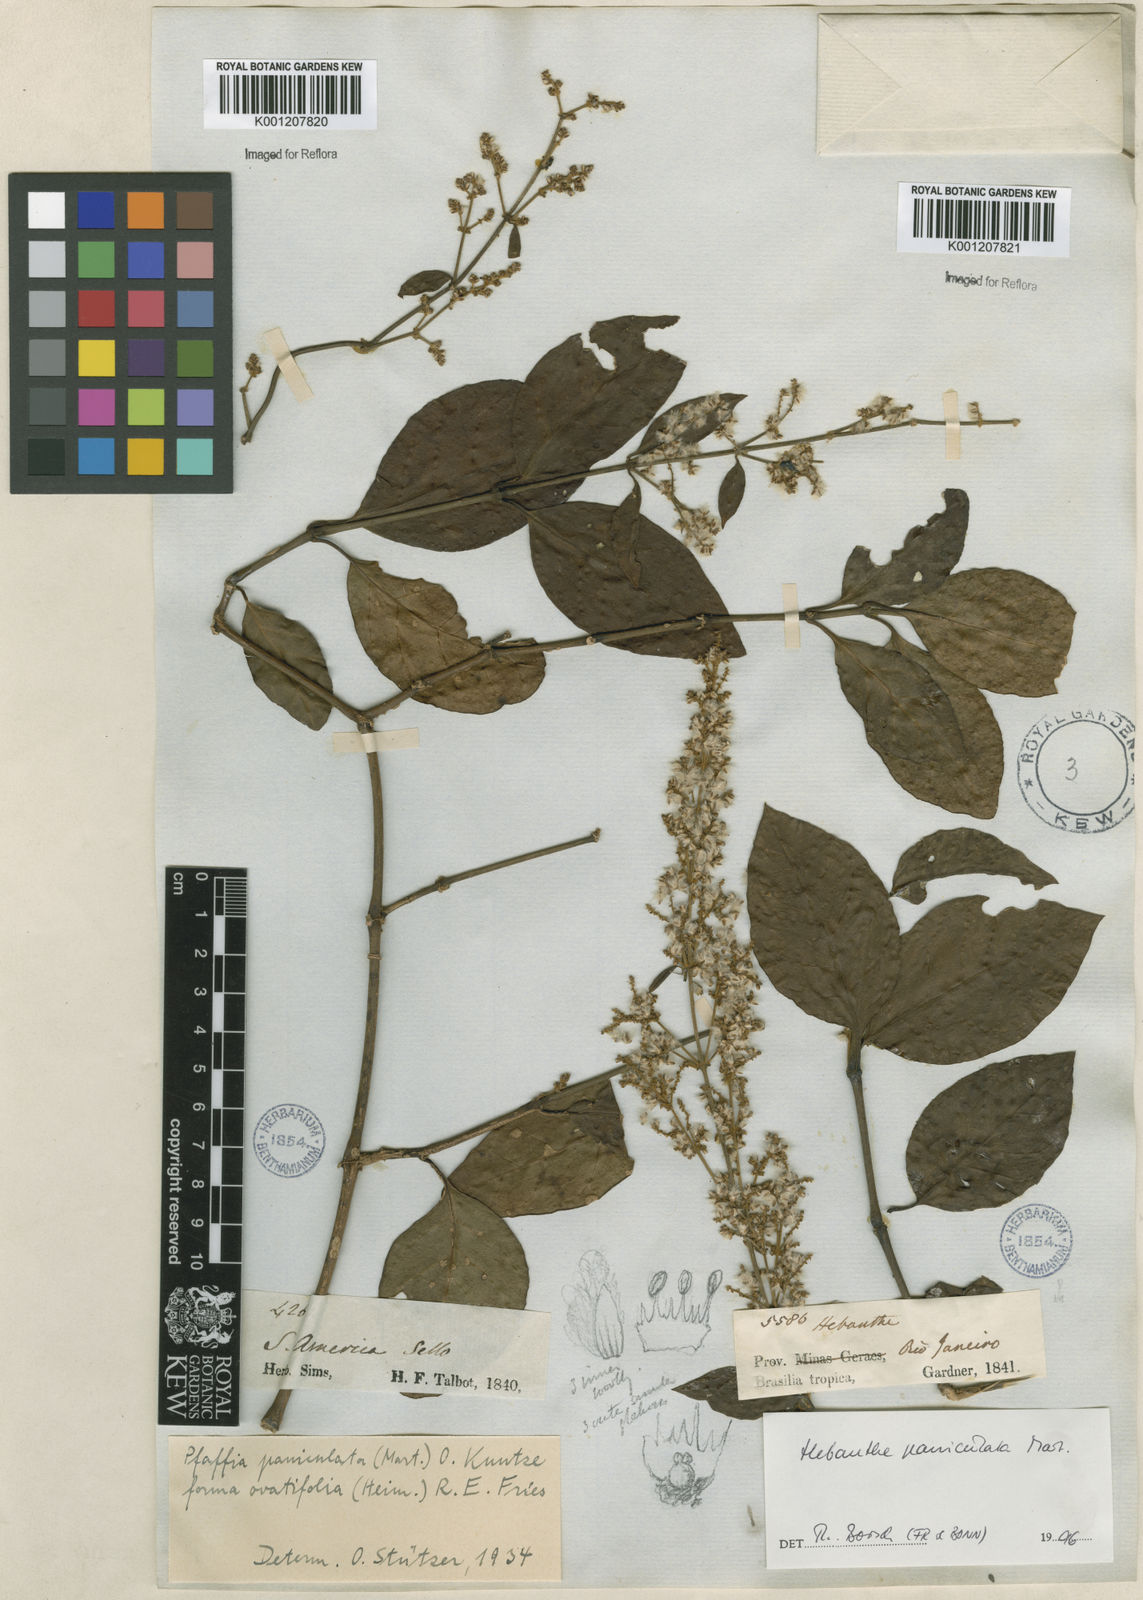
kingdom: Plantae
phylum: Tracheophyta
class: Magnoliopsida
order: Caryophyllales
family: Amaranthaceae
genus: Hebanthe
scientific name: Hebanthe erianthos
